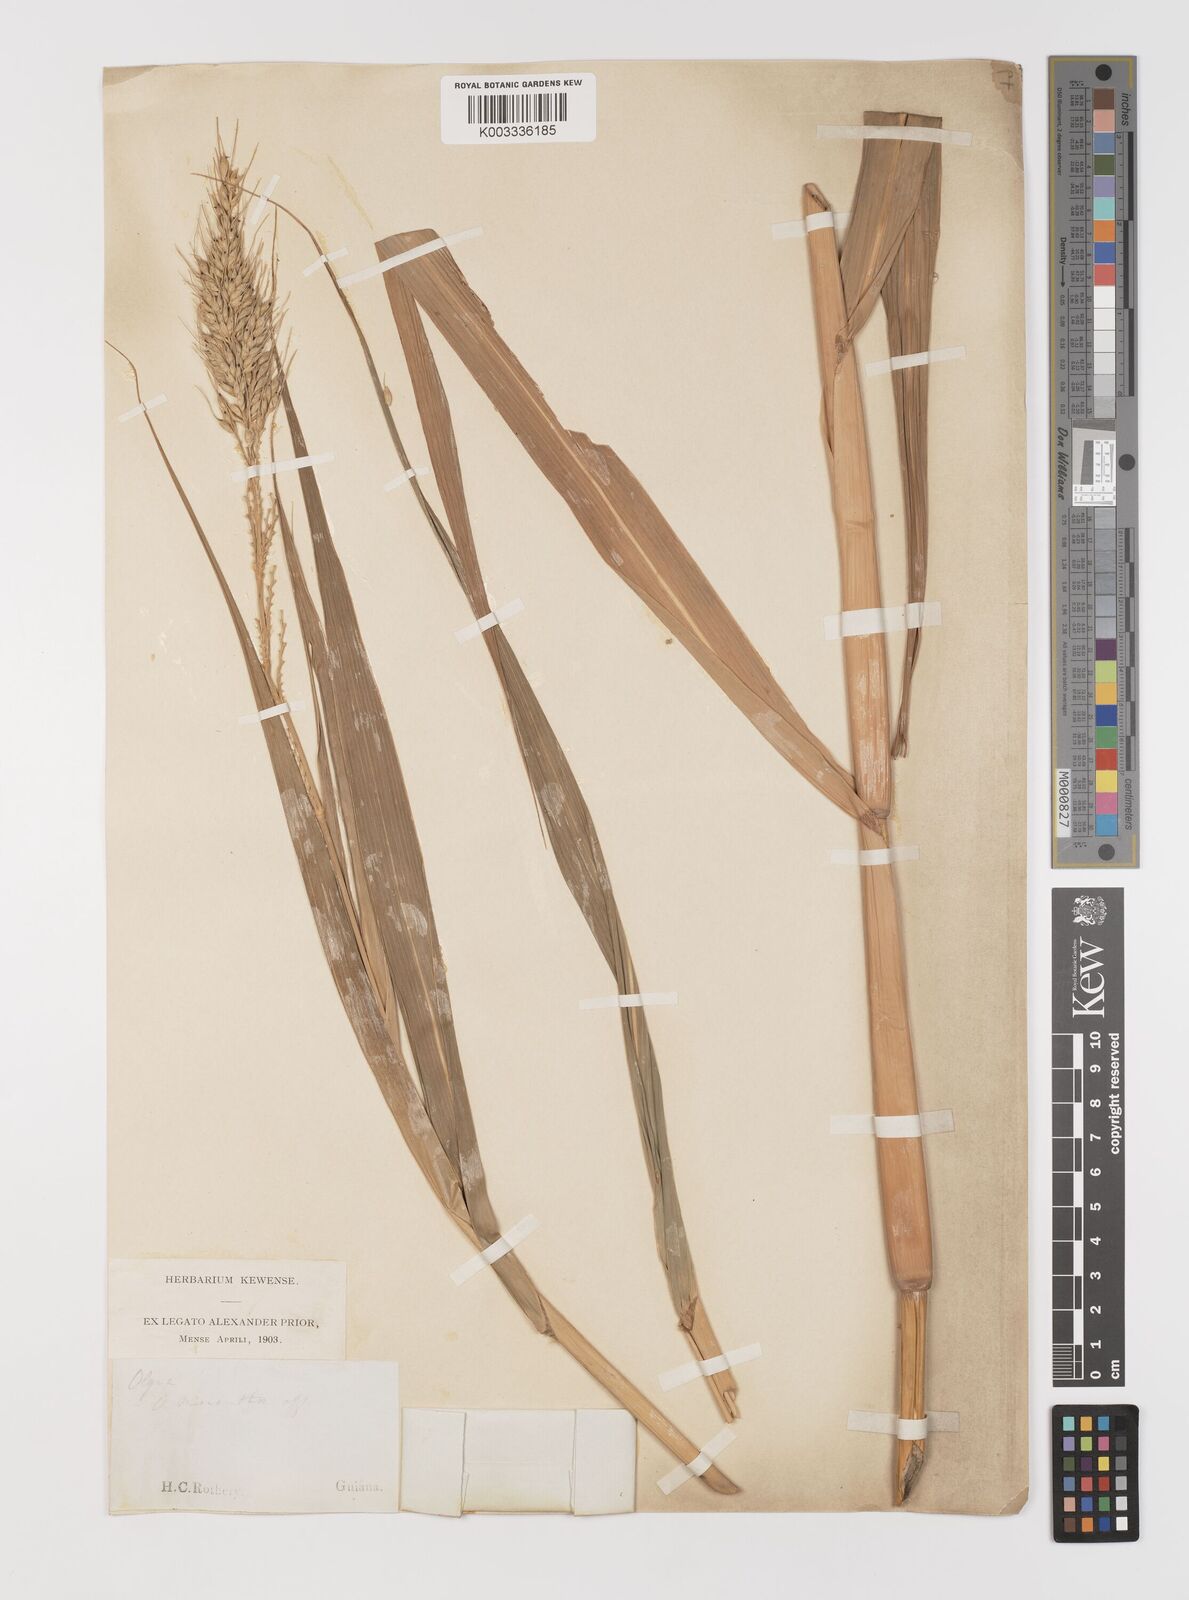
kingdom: Plantae
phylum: Tracheophyta
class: Liliopsida
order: Poales
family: Poaceae
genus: Pseudechinolaena
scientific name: Pseudechinolaena polystachya
